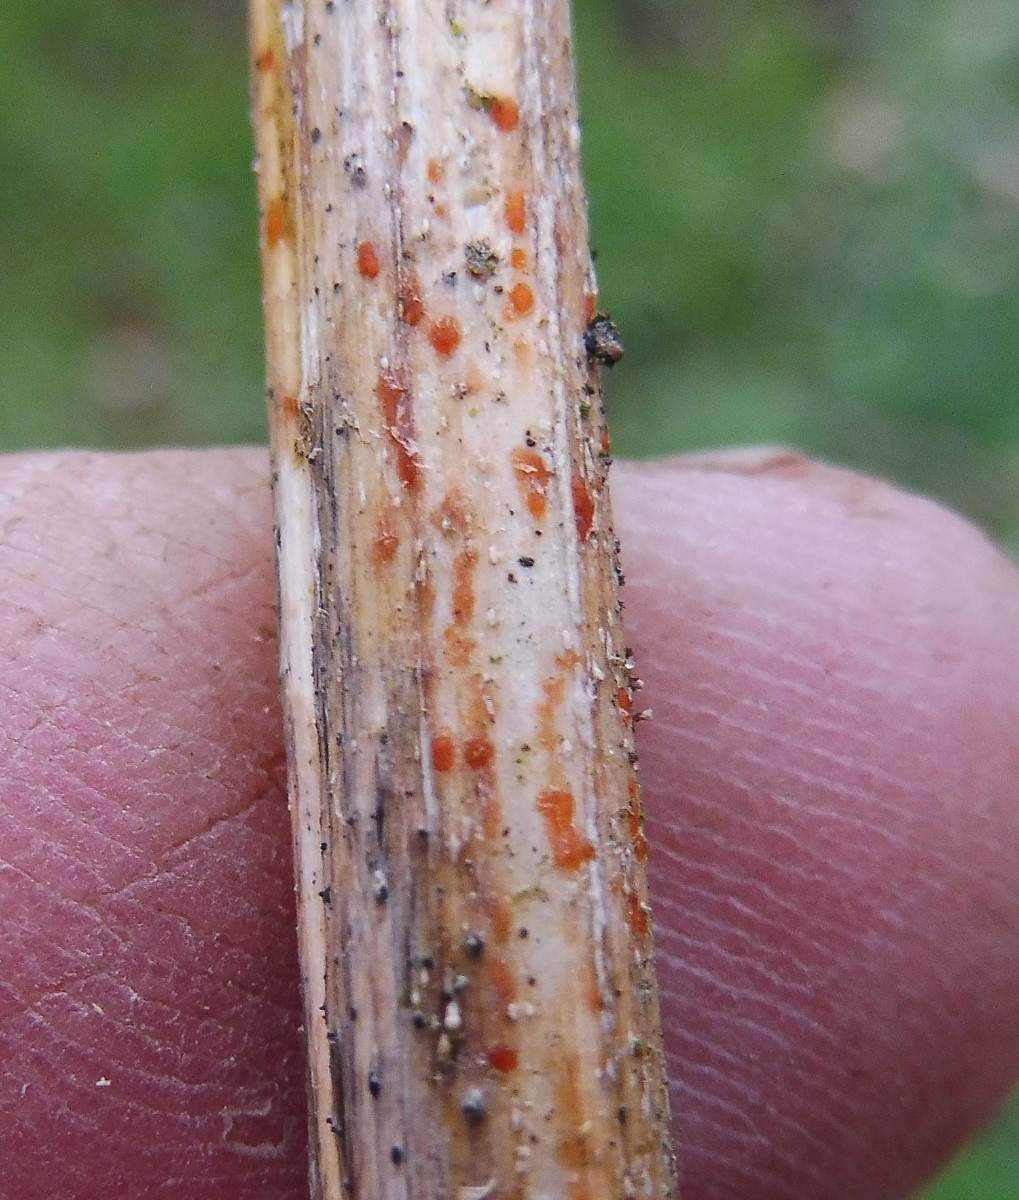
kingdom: Fungi
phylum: Ascomycota
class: Leotiomycetes
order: Helotiales
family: Calloriaceae
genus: Calloria
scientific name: Calloria urticae
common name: nælde-orangeskive
